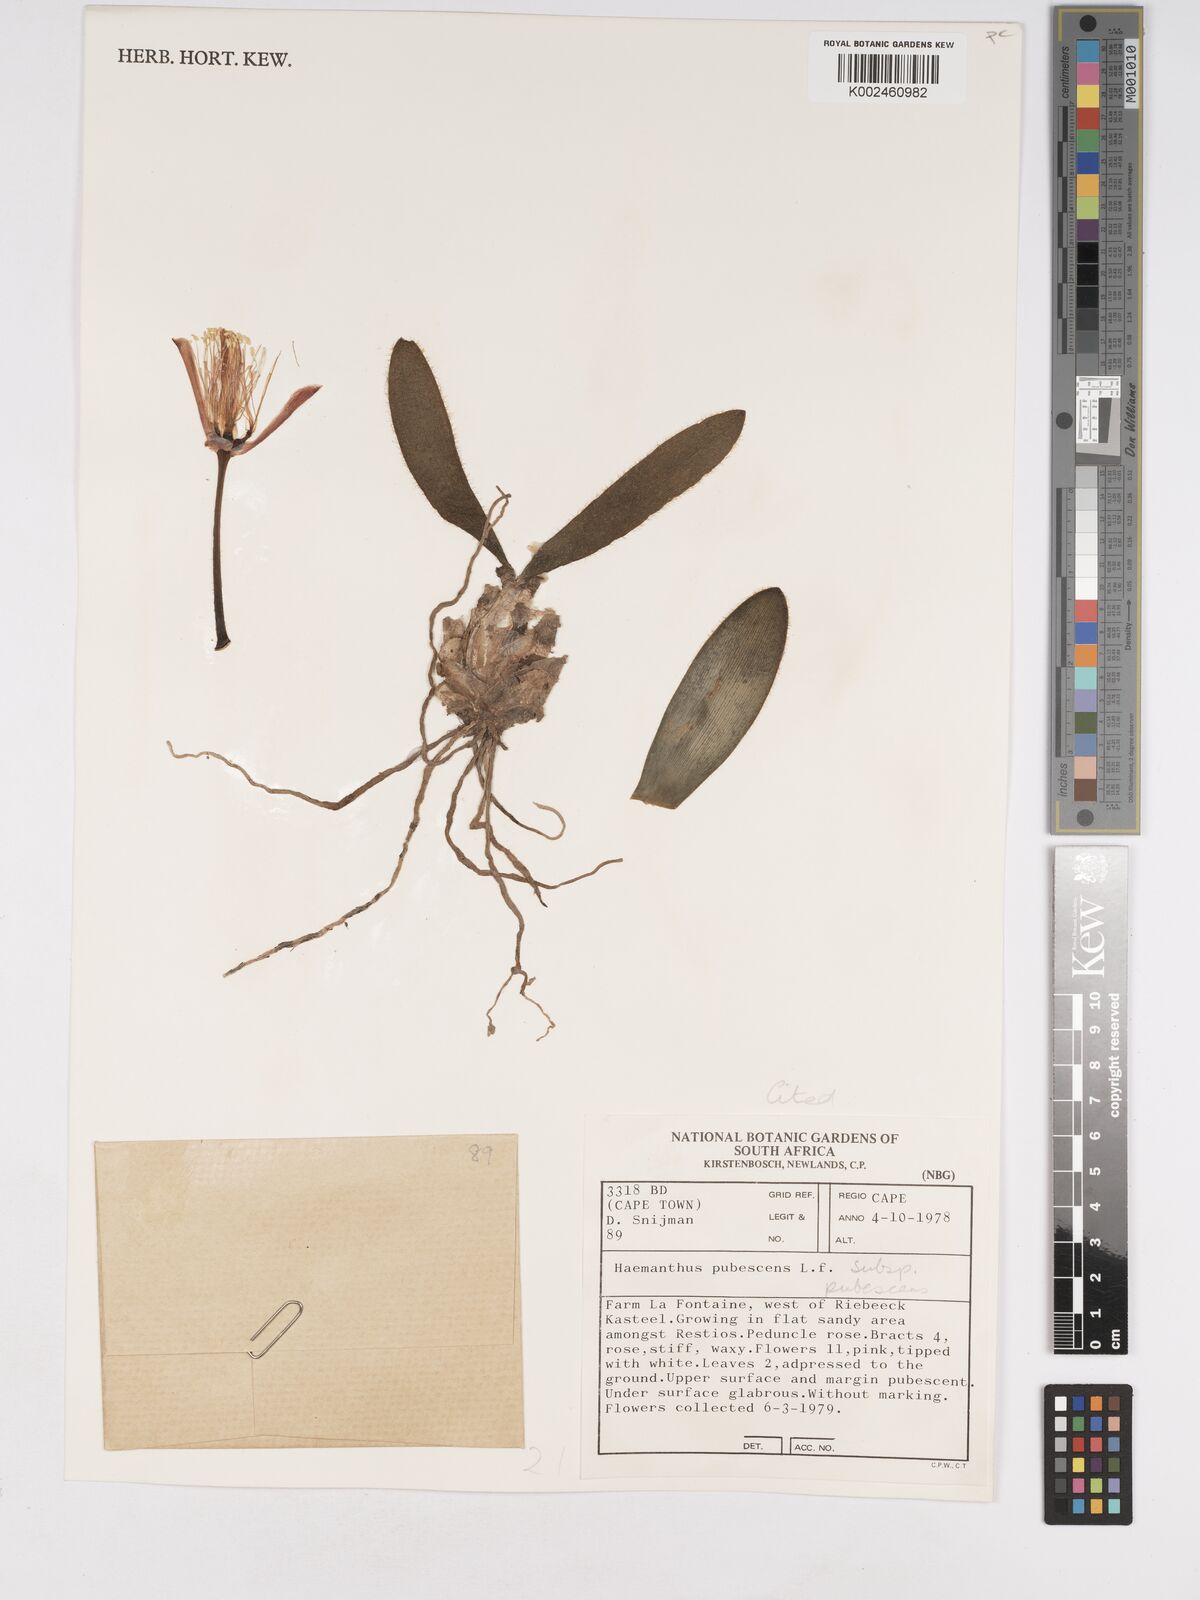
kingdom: Plantae
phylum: Tracheophyta
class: Liliopsida
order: Asparagales
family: Amaryllidaceae
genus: Haemanthus
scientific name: Haemanthus pubescens
